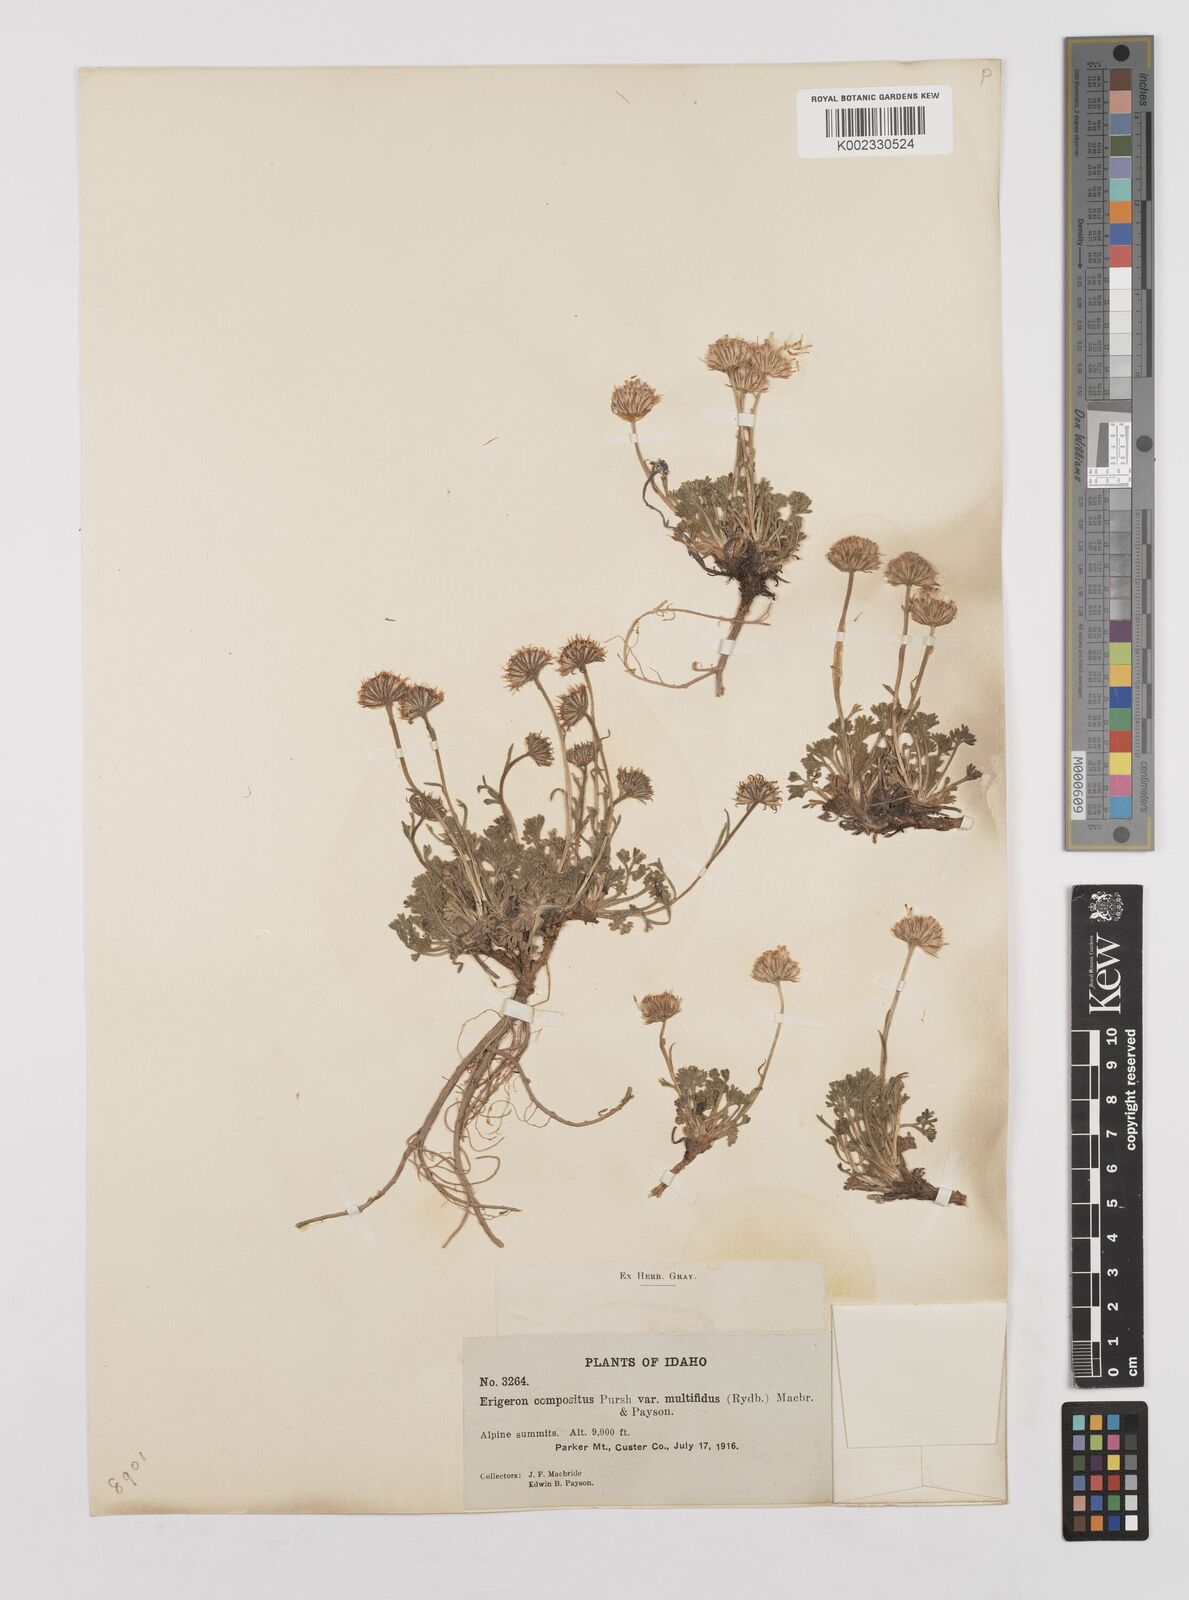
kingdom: Plantae
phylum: Tracheophyta
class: Magnoliopsida
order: Asterales
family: Asteraceae
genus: Erigeron
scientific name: Erigeron compositus
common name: Dwarf mountain fleabane
